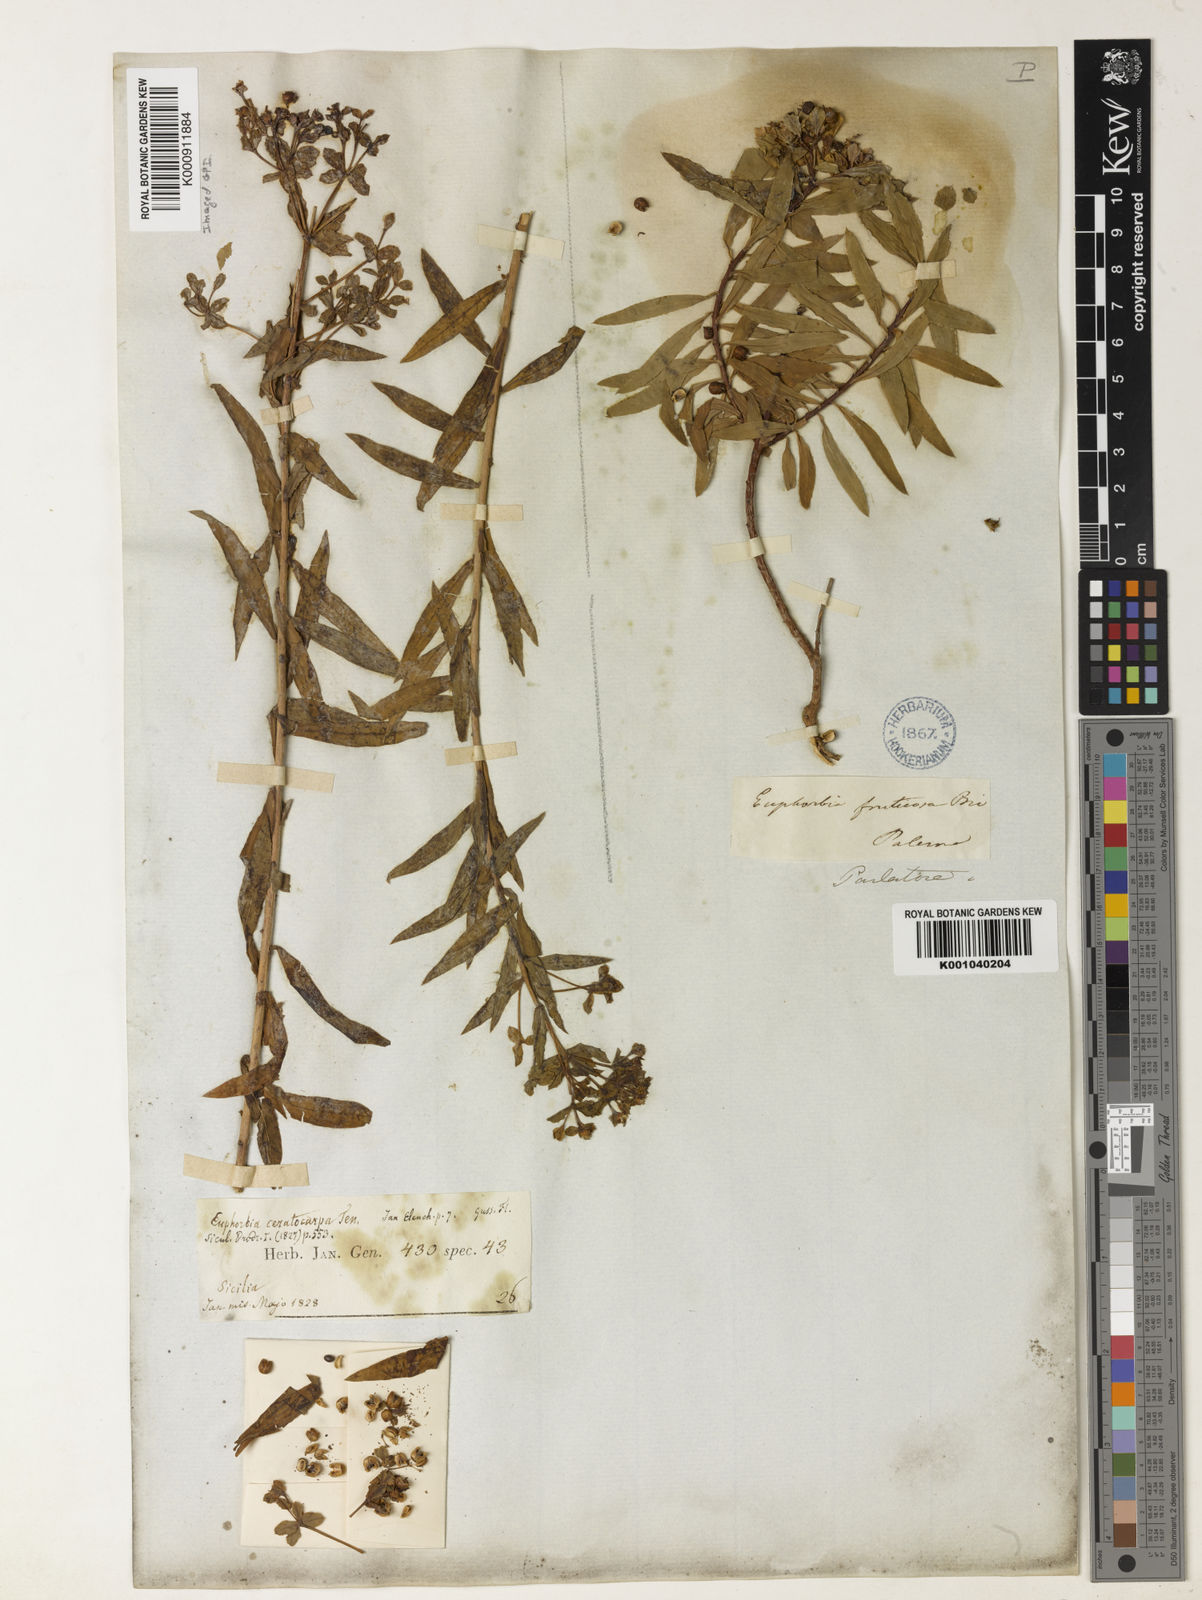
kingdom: Plantae
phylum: Tracheophyta
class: Magnoliopsida
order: Malpighiales
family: Euphorbiaceae
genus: Euphorbia
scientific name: Euphorbia ceratocarpa
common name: Horned spurge
